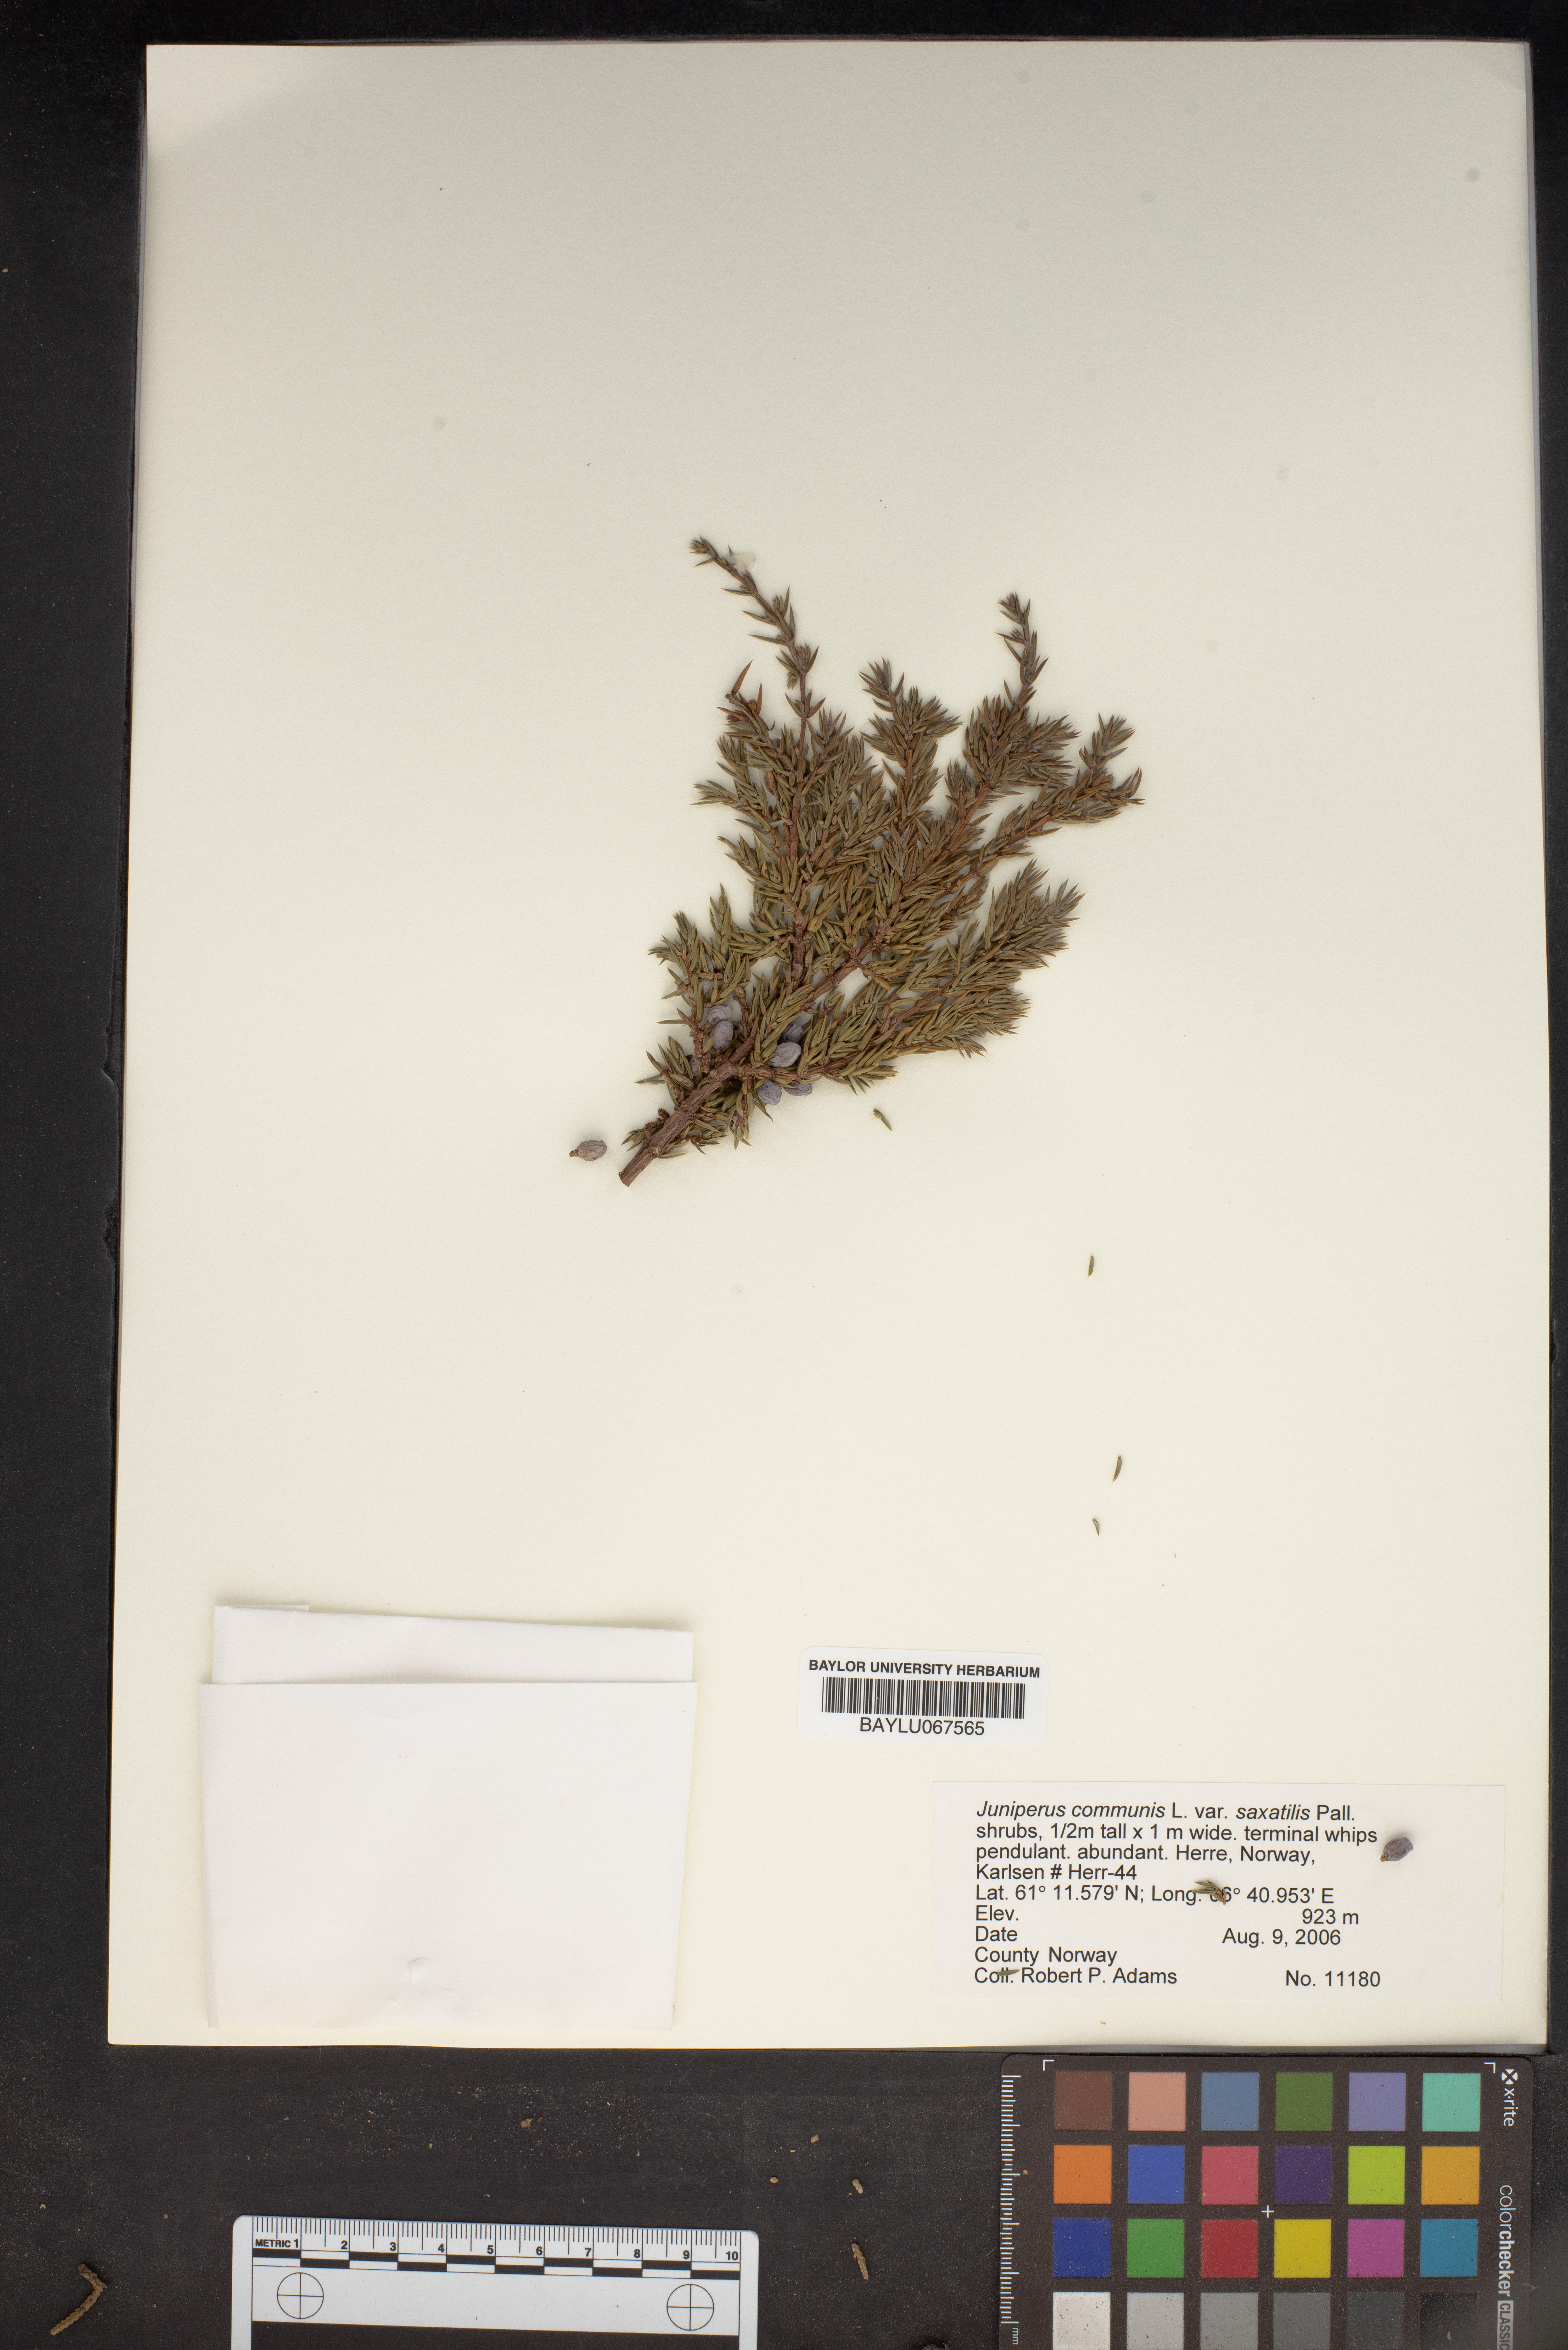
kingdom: Plantae
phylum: Tracheophyta
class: Pinopsida
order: Pinales
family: Cupressaceae
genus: Juniperus
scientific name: Juniperus communis
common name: Common juniper
